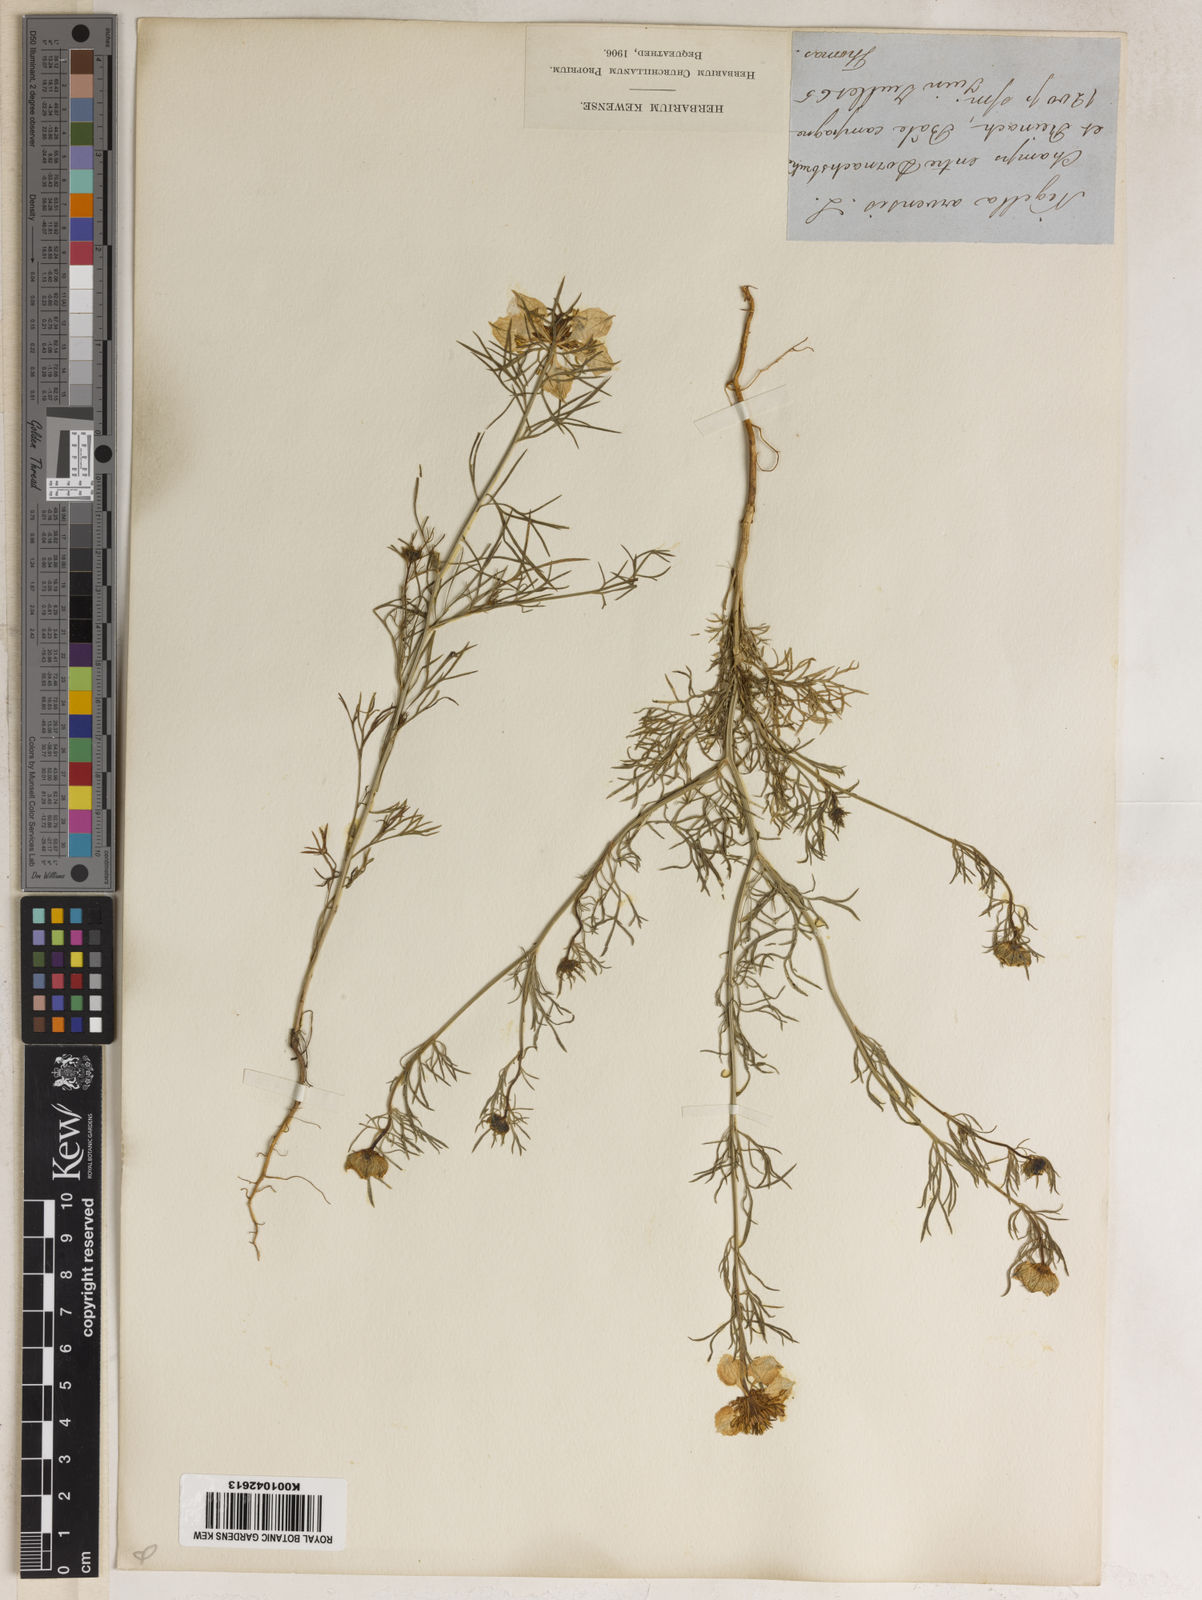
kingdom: Plantae
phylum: Tracheophyta
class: Magnoliopsida
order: Ranunculales
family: Ranunculaceae
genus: Nigella
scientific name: Nigella arvensis
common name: Wild fennel-flower
